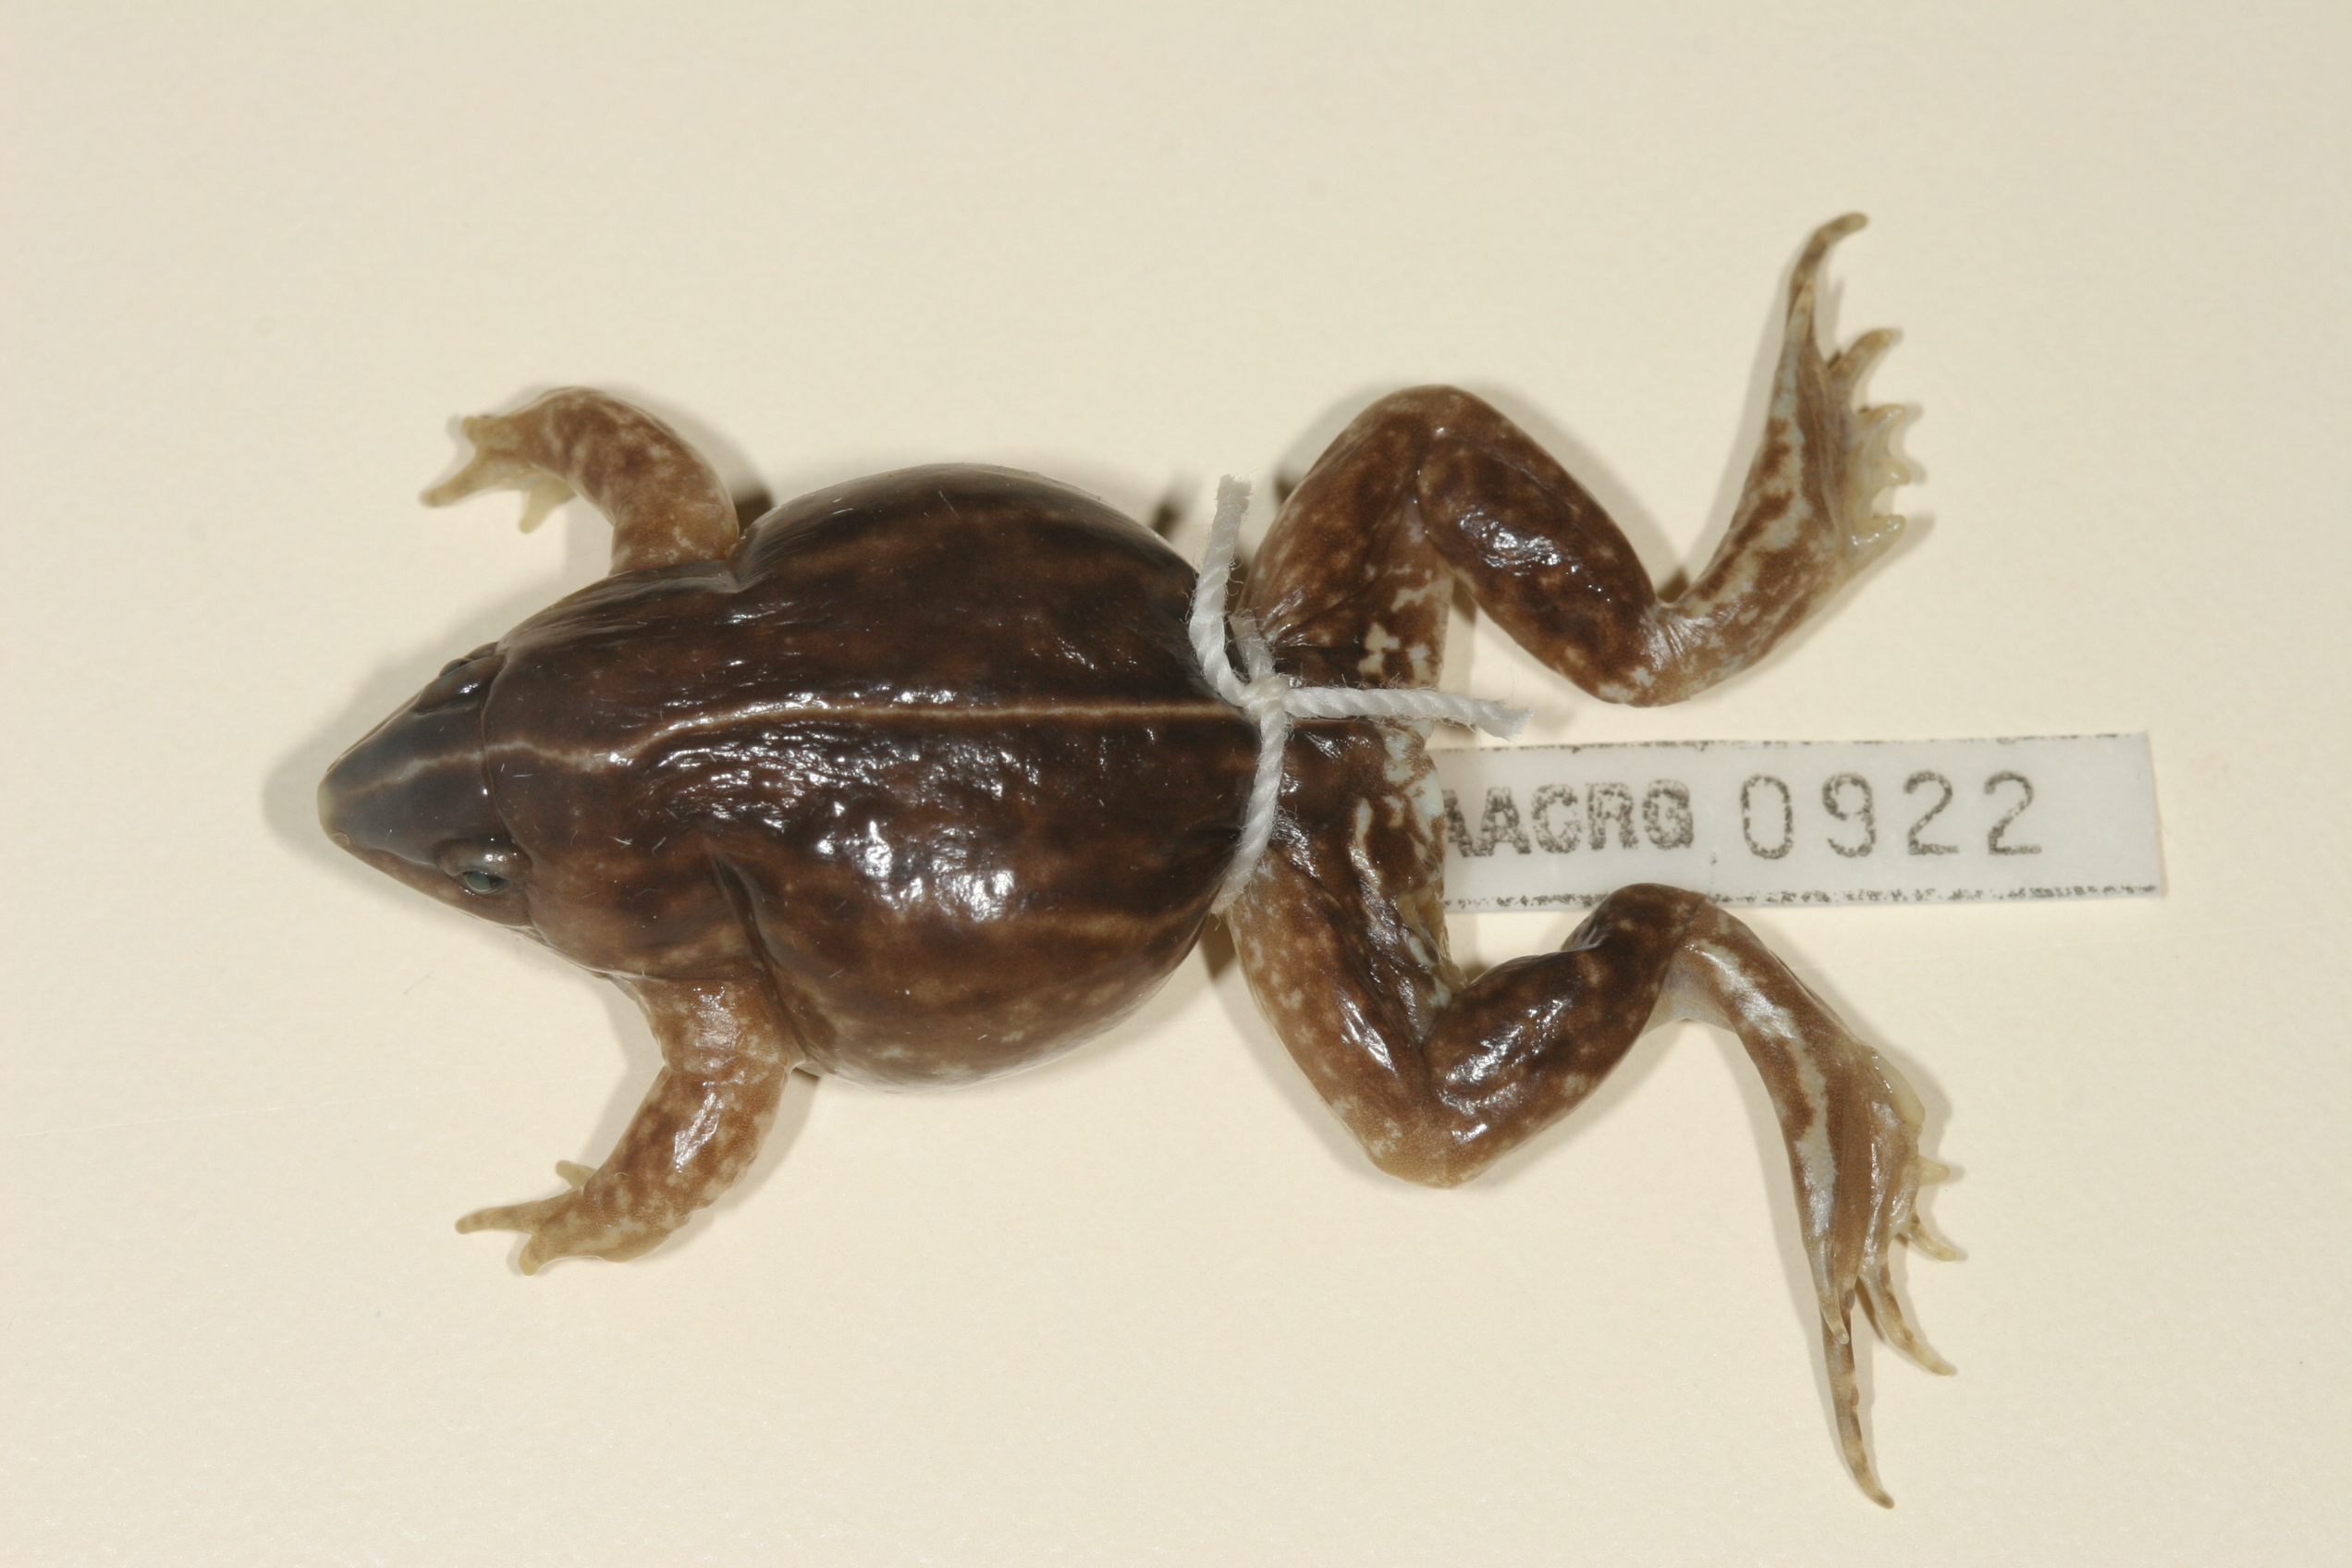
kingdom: Animalia
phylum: Chordata
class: Amphibia
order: Anura
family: Hemisotidae
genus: Hemisus
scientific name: Hemisus guineensis
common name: Guinea snout-burrower
